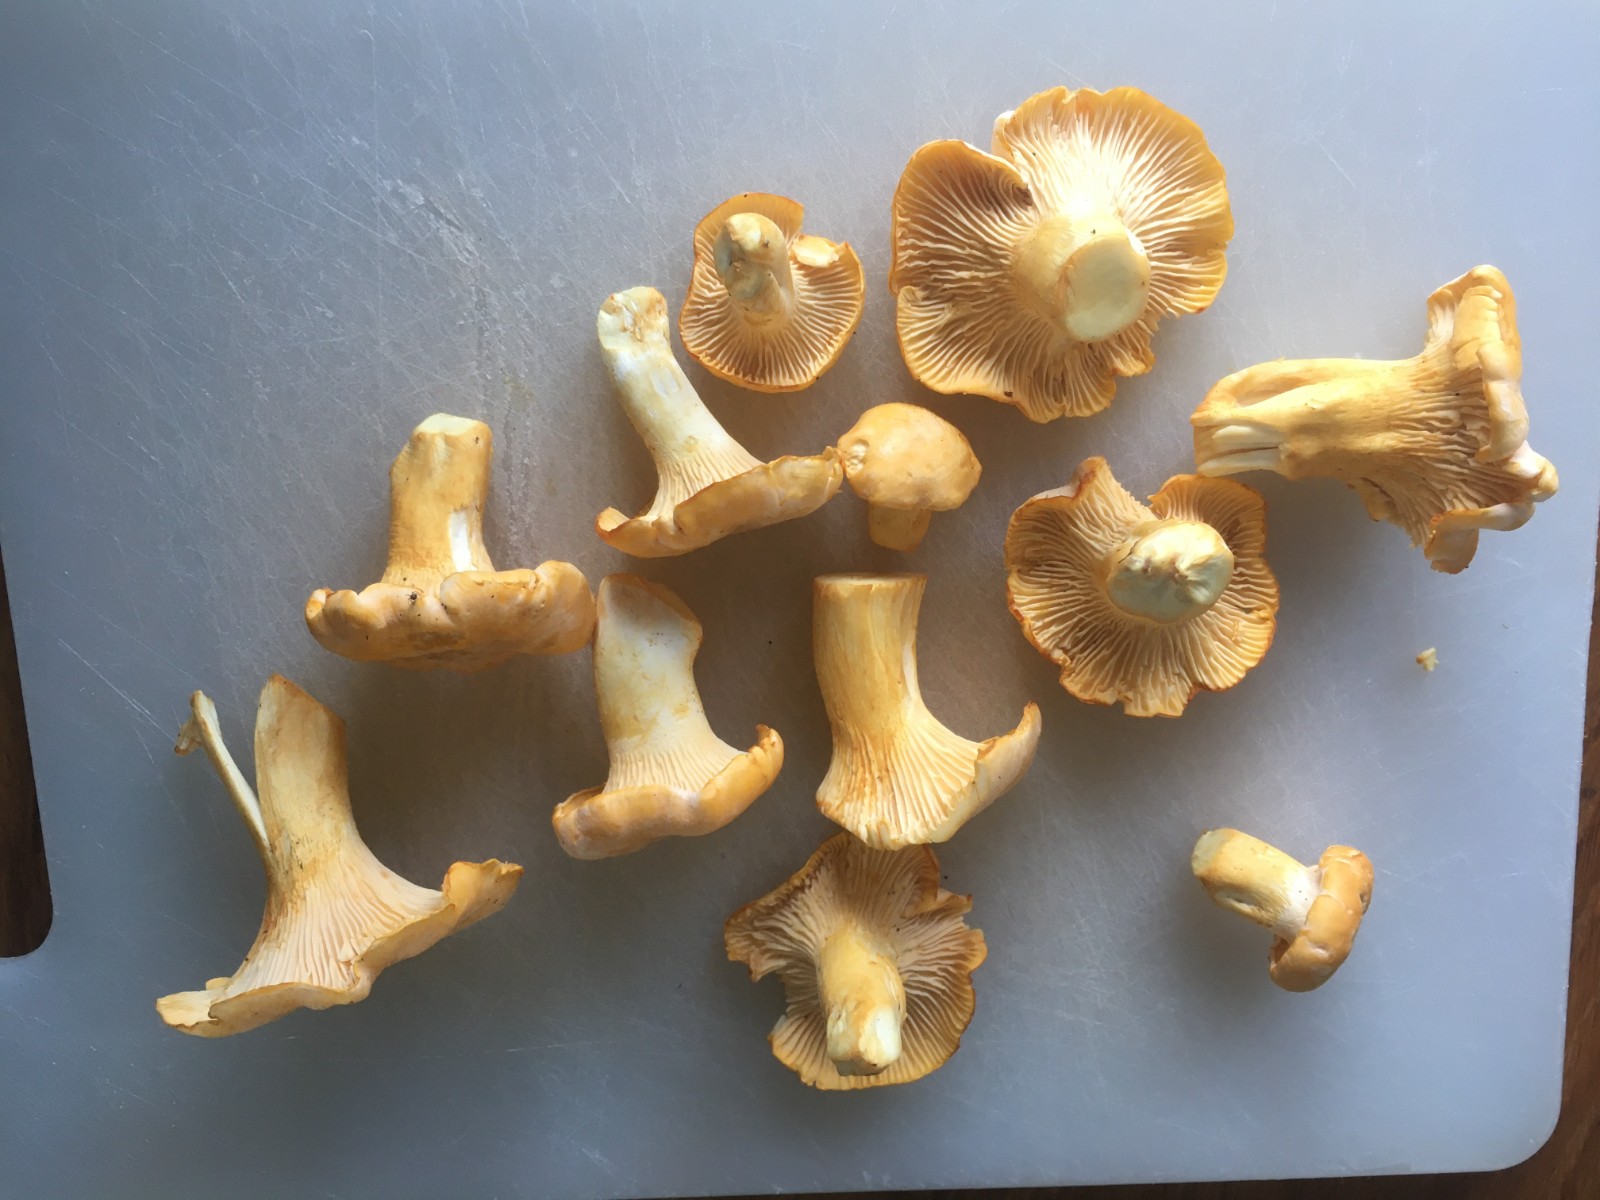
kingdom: Fungi
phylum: Basidiomycota
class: Agaricomycetes
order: Cantharellales
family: Hydnaceae
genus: Cantharellus
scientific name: Cantharellus
